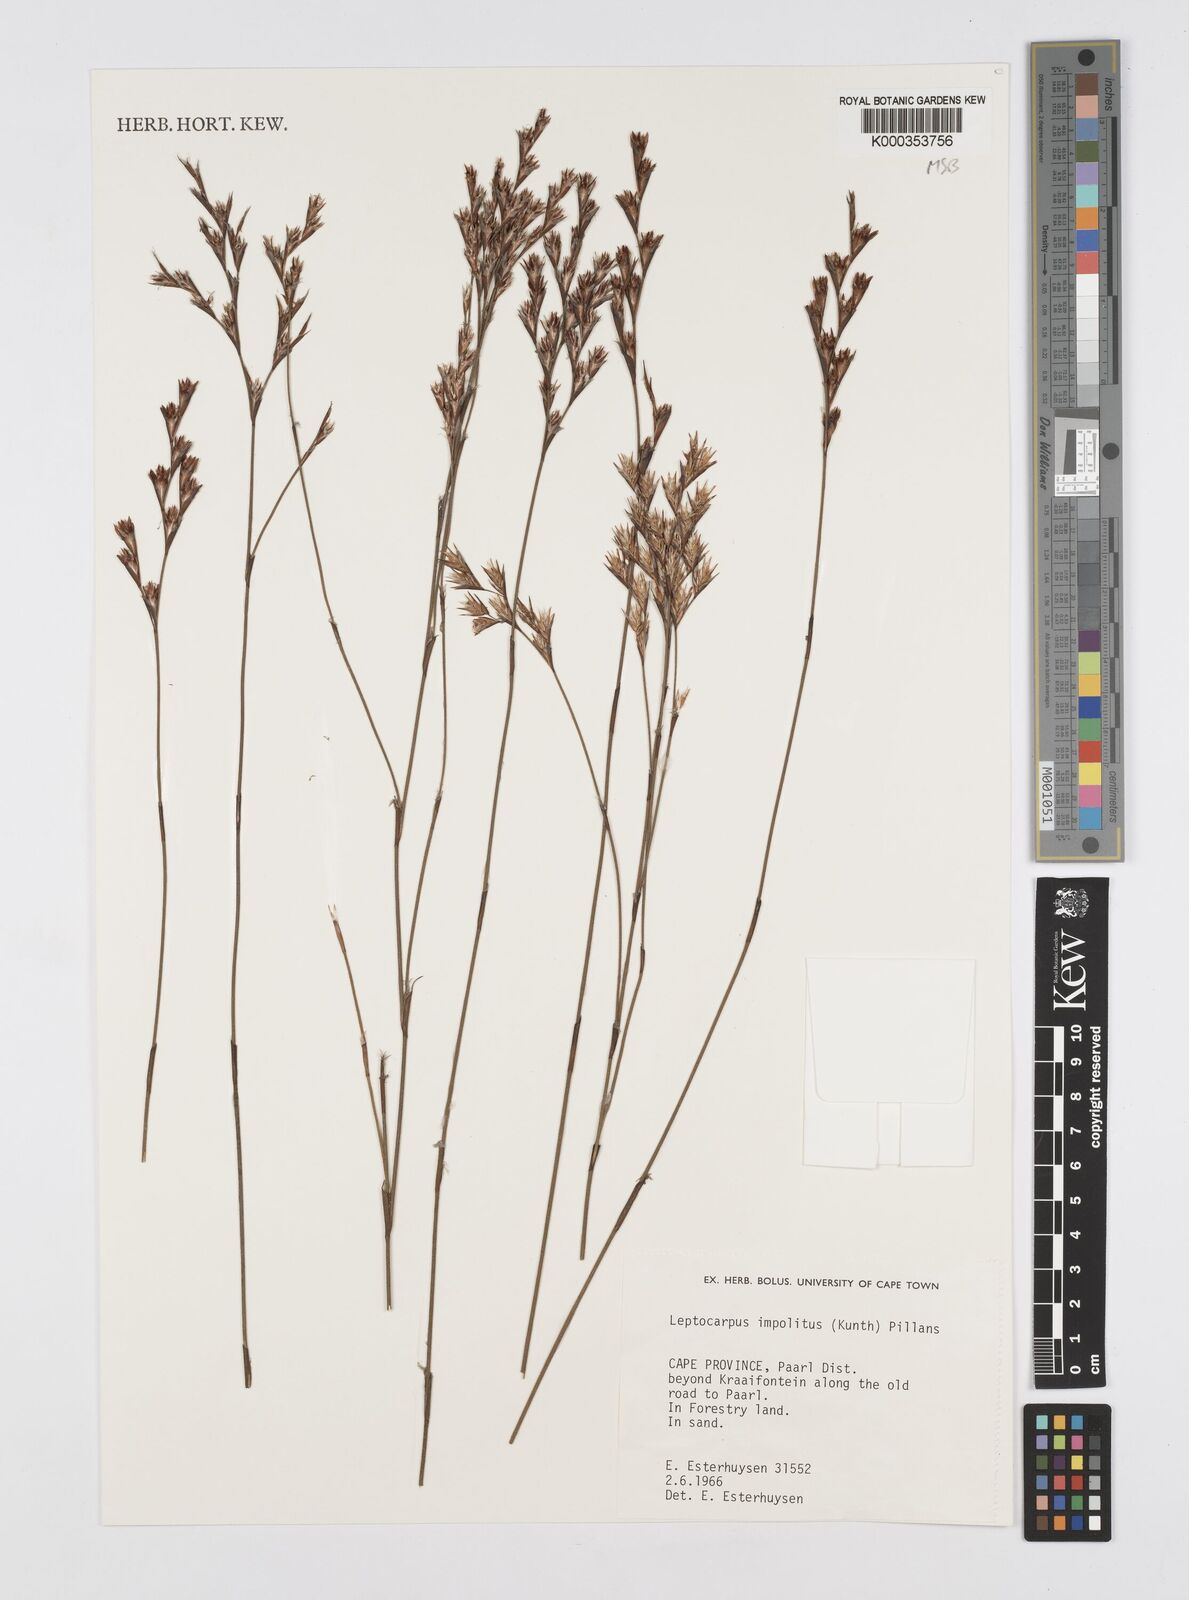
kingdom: Plantae
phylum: Tracheophyta
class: Liliopsida
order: Poales
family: Restionaceae
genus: Restio
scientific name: Restio impolitus
